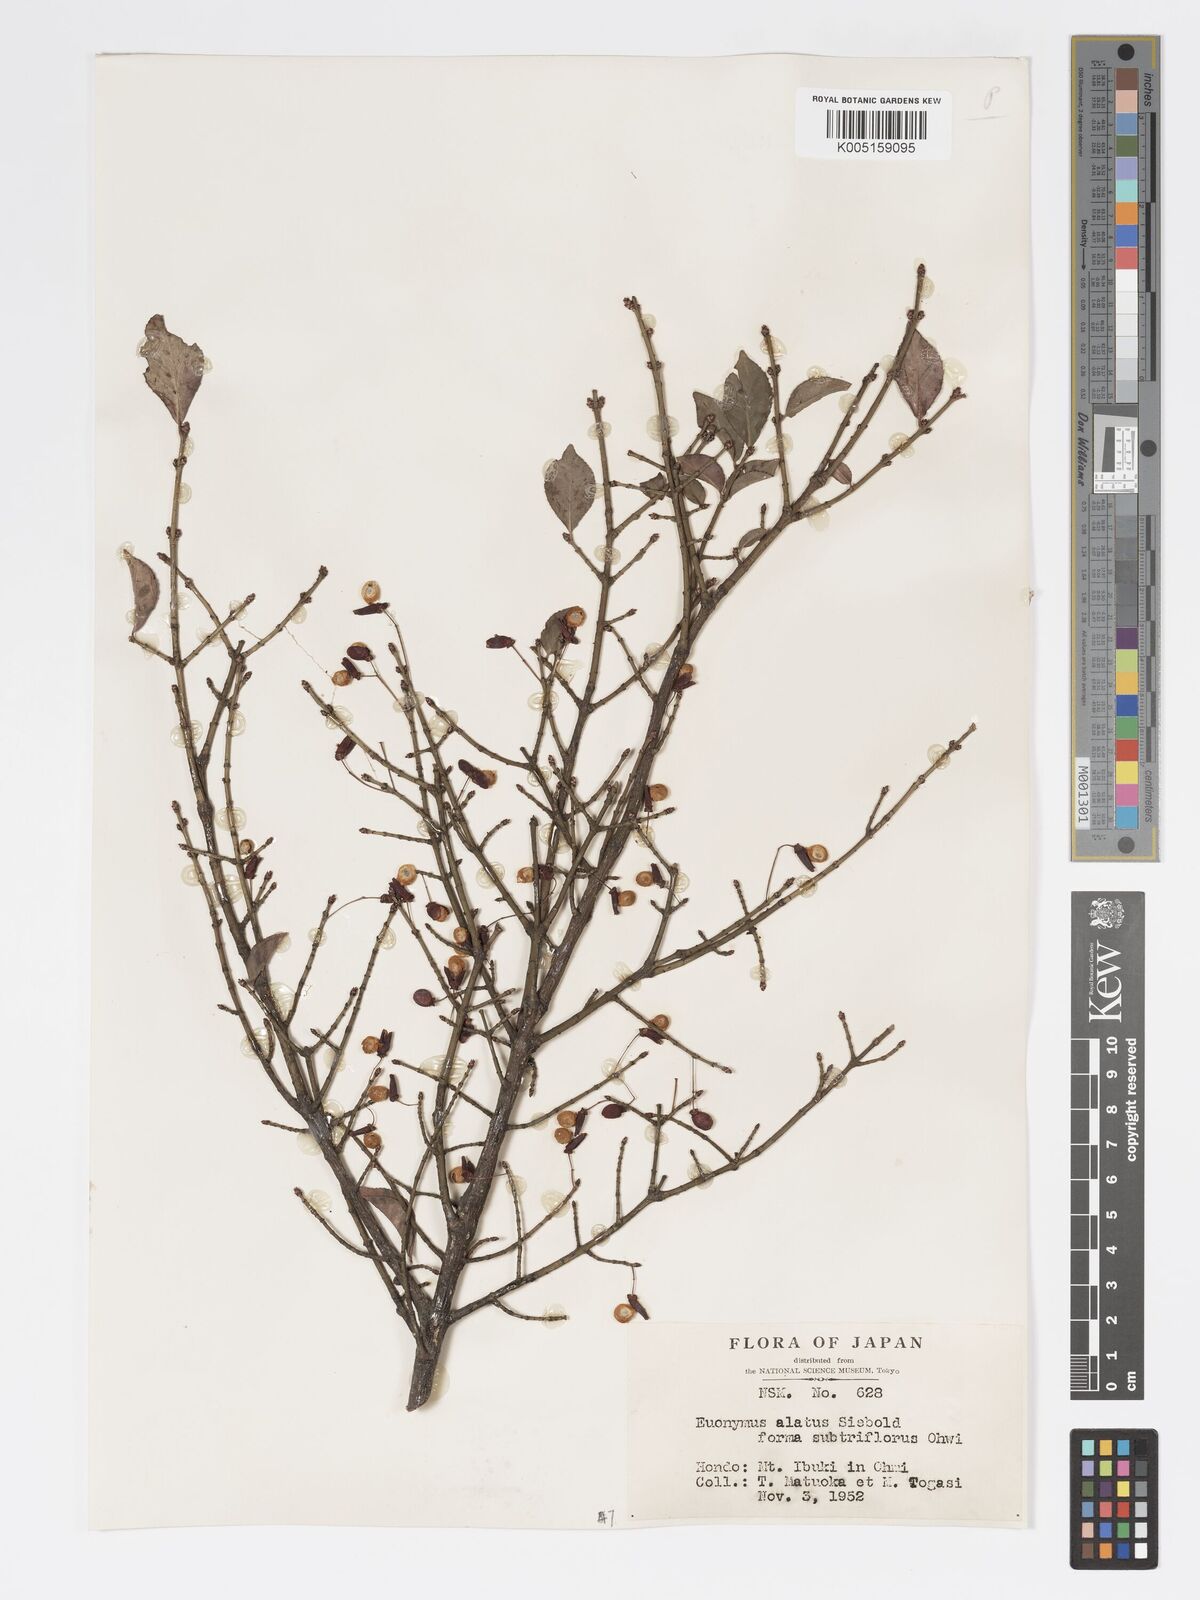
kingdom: Plantae
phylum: Tracheophyta
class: Magnoliopsida
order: Celastrales
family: Celastraceae
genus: Euonymus
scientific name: Euonymus
